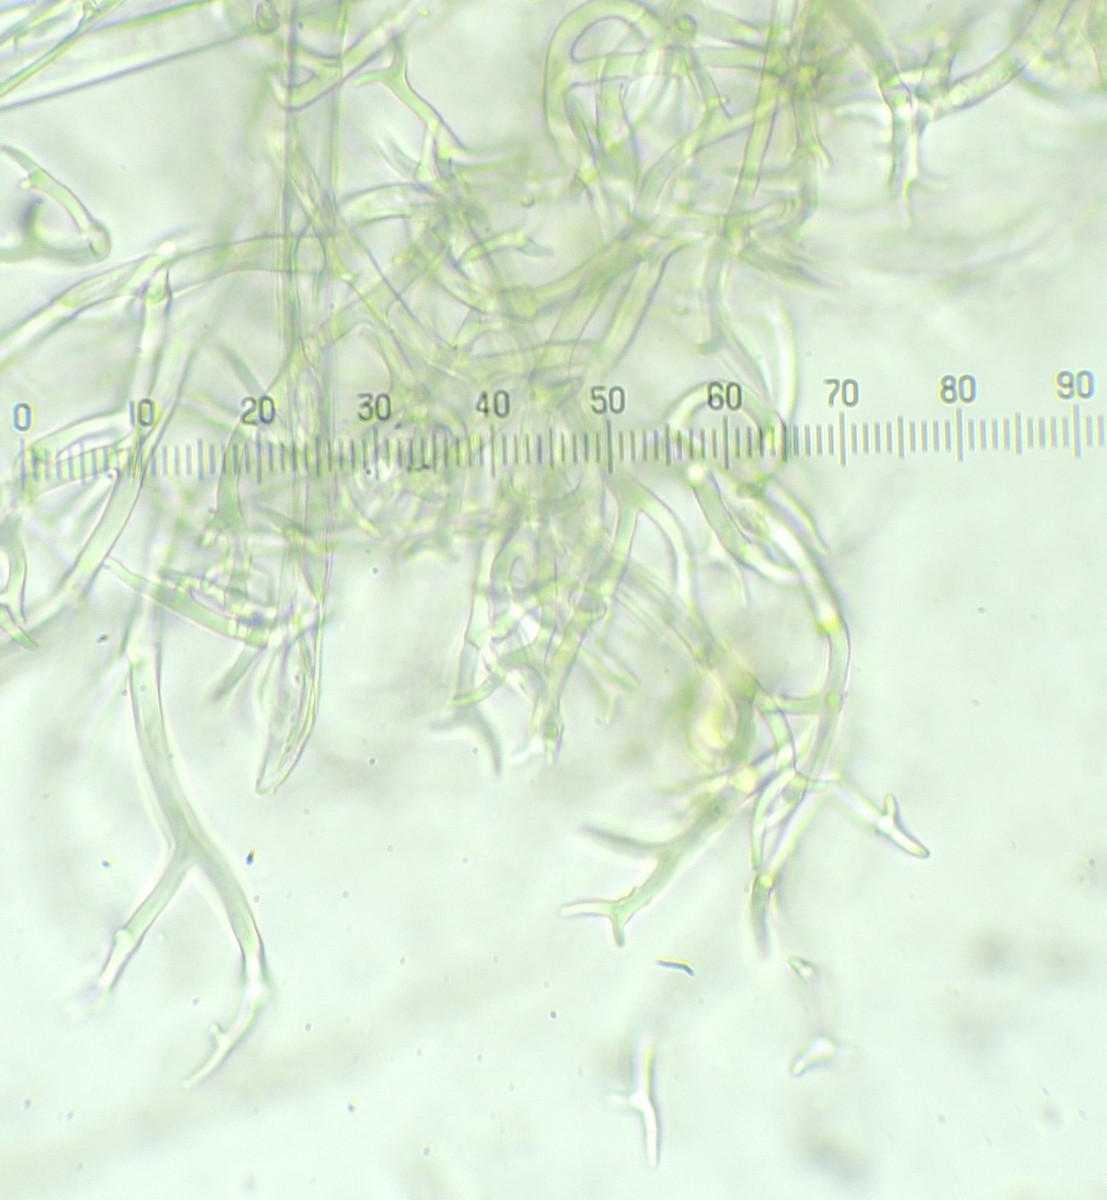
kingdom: Chromista
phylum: Oomycota
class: Peronosporea
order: Peronosporales
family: Peronosporaceae
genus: Peronospora
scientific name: Peronospora arvensis
